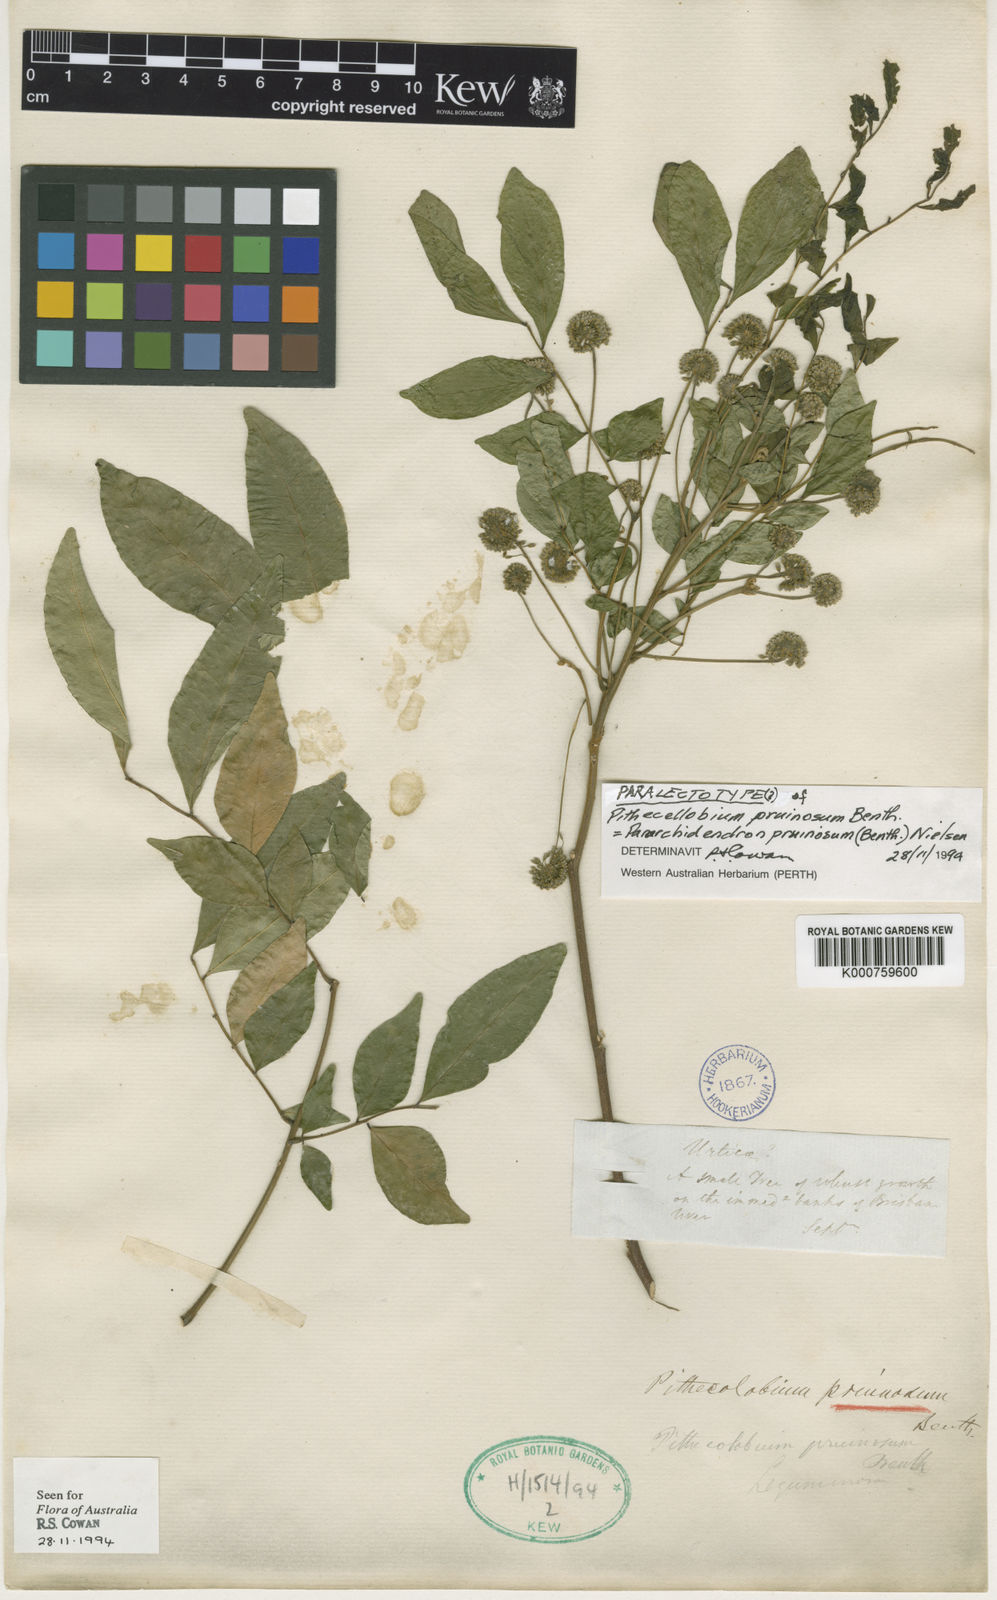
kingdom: Plantae
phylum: Tracheophyta
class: Magnoliopsida
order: Fabales
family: Fabaceae
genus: Pararchidendron
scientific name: Pararchidendron pruinosum
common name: Tulip siris
